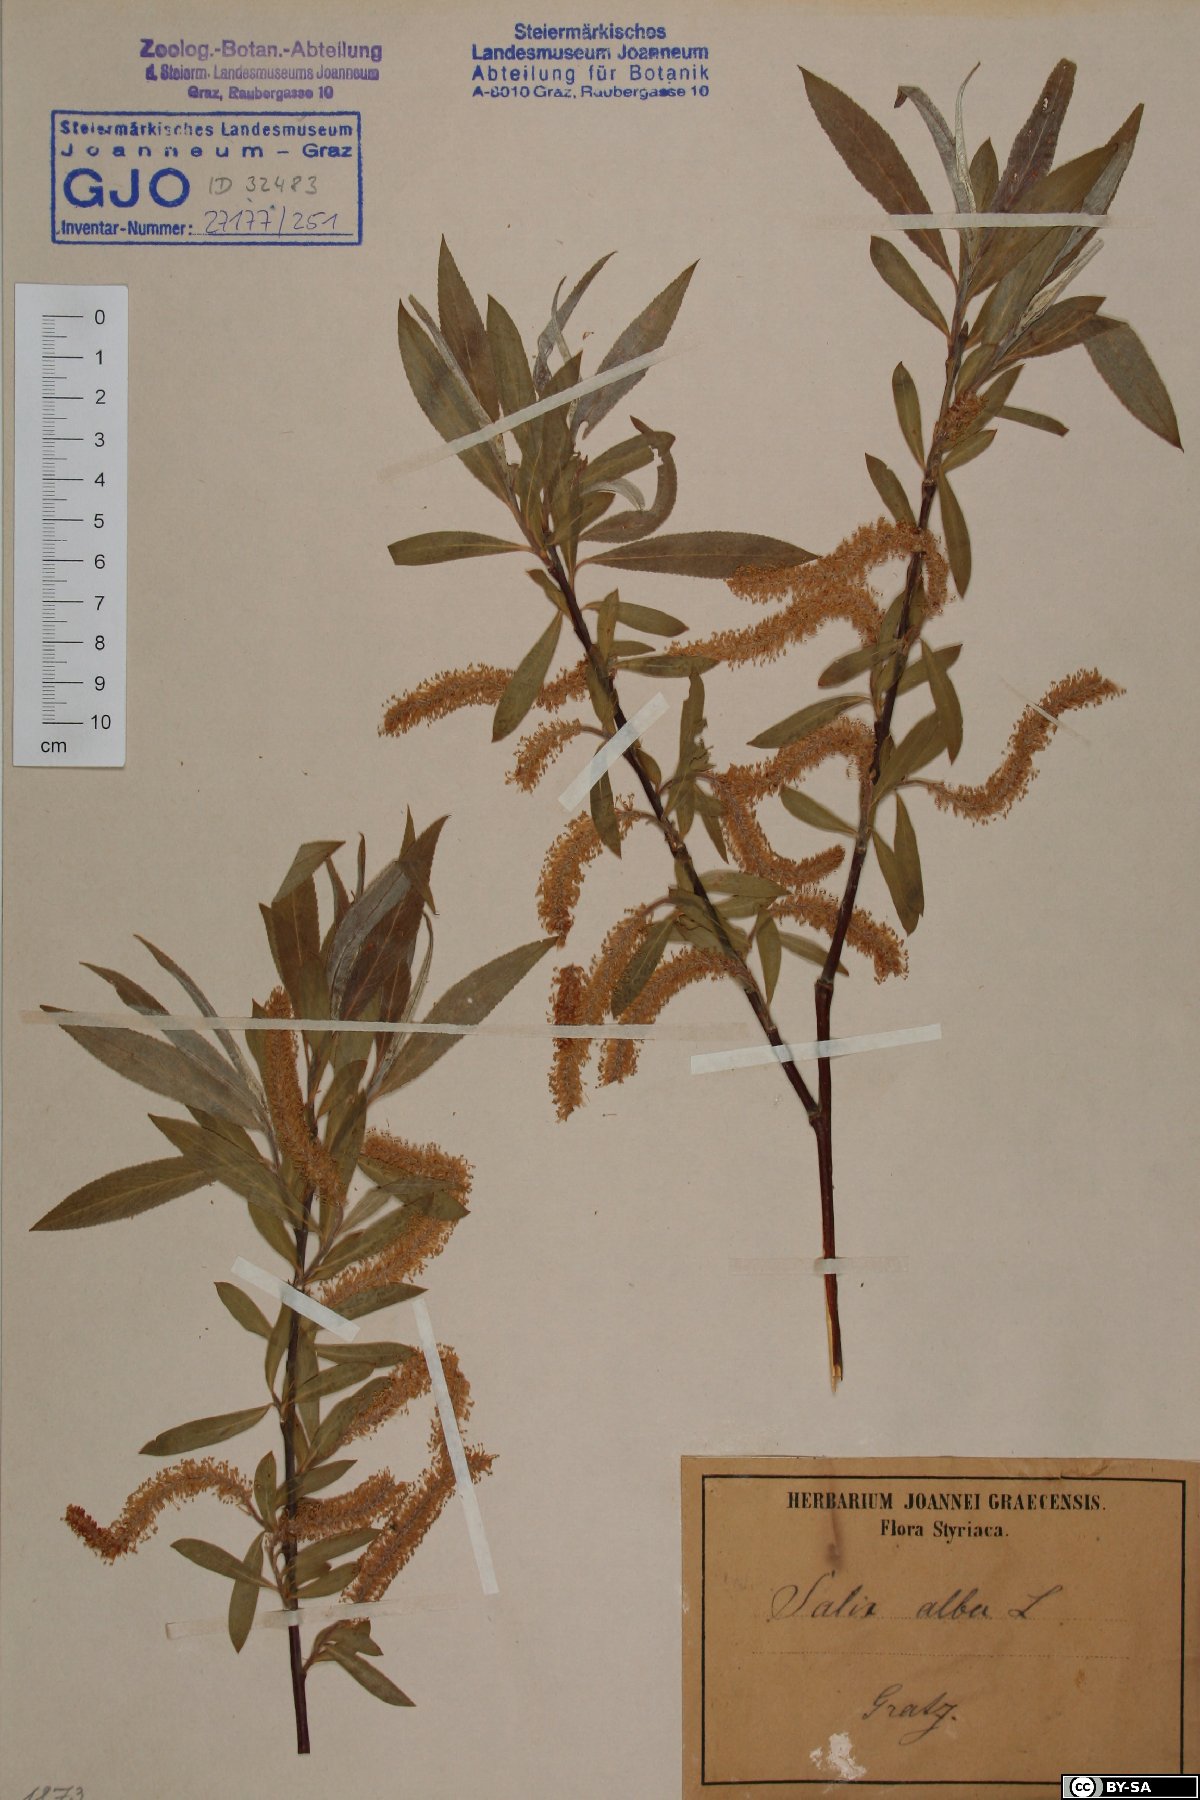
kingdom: Plantae
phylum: Tracheophyta
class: Magnoliopsida
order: Malpighiales
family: Salicaceae
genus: Salix
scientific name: Salix alba
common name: White willow
